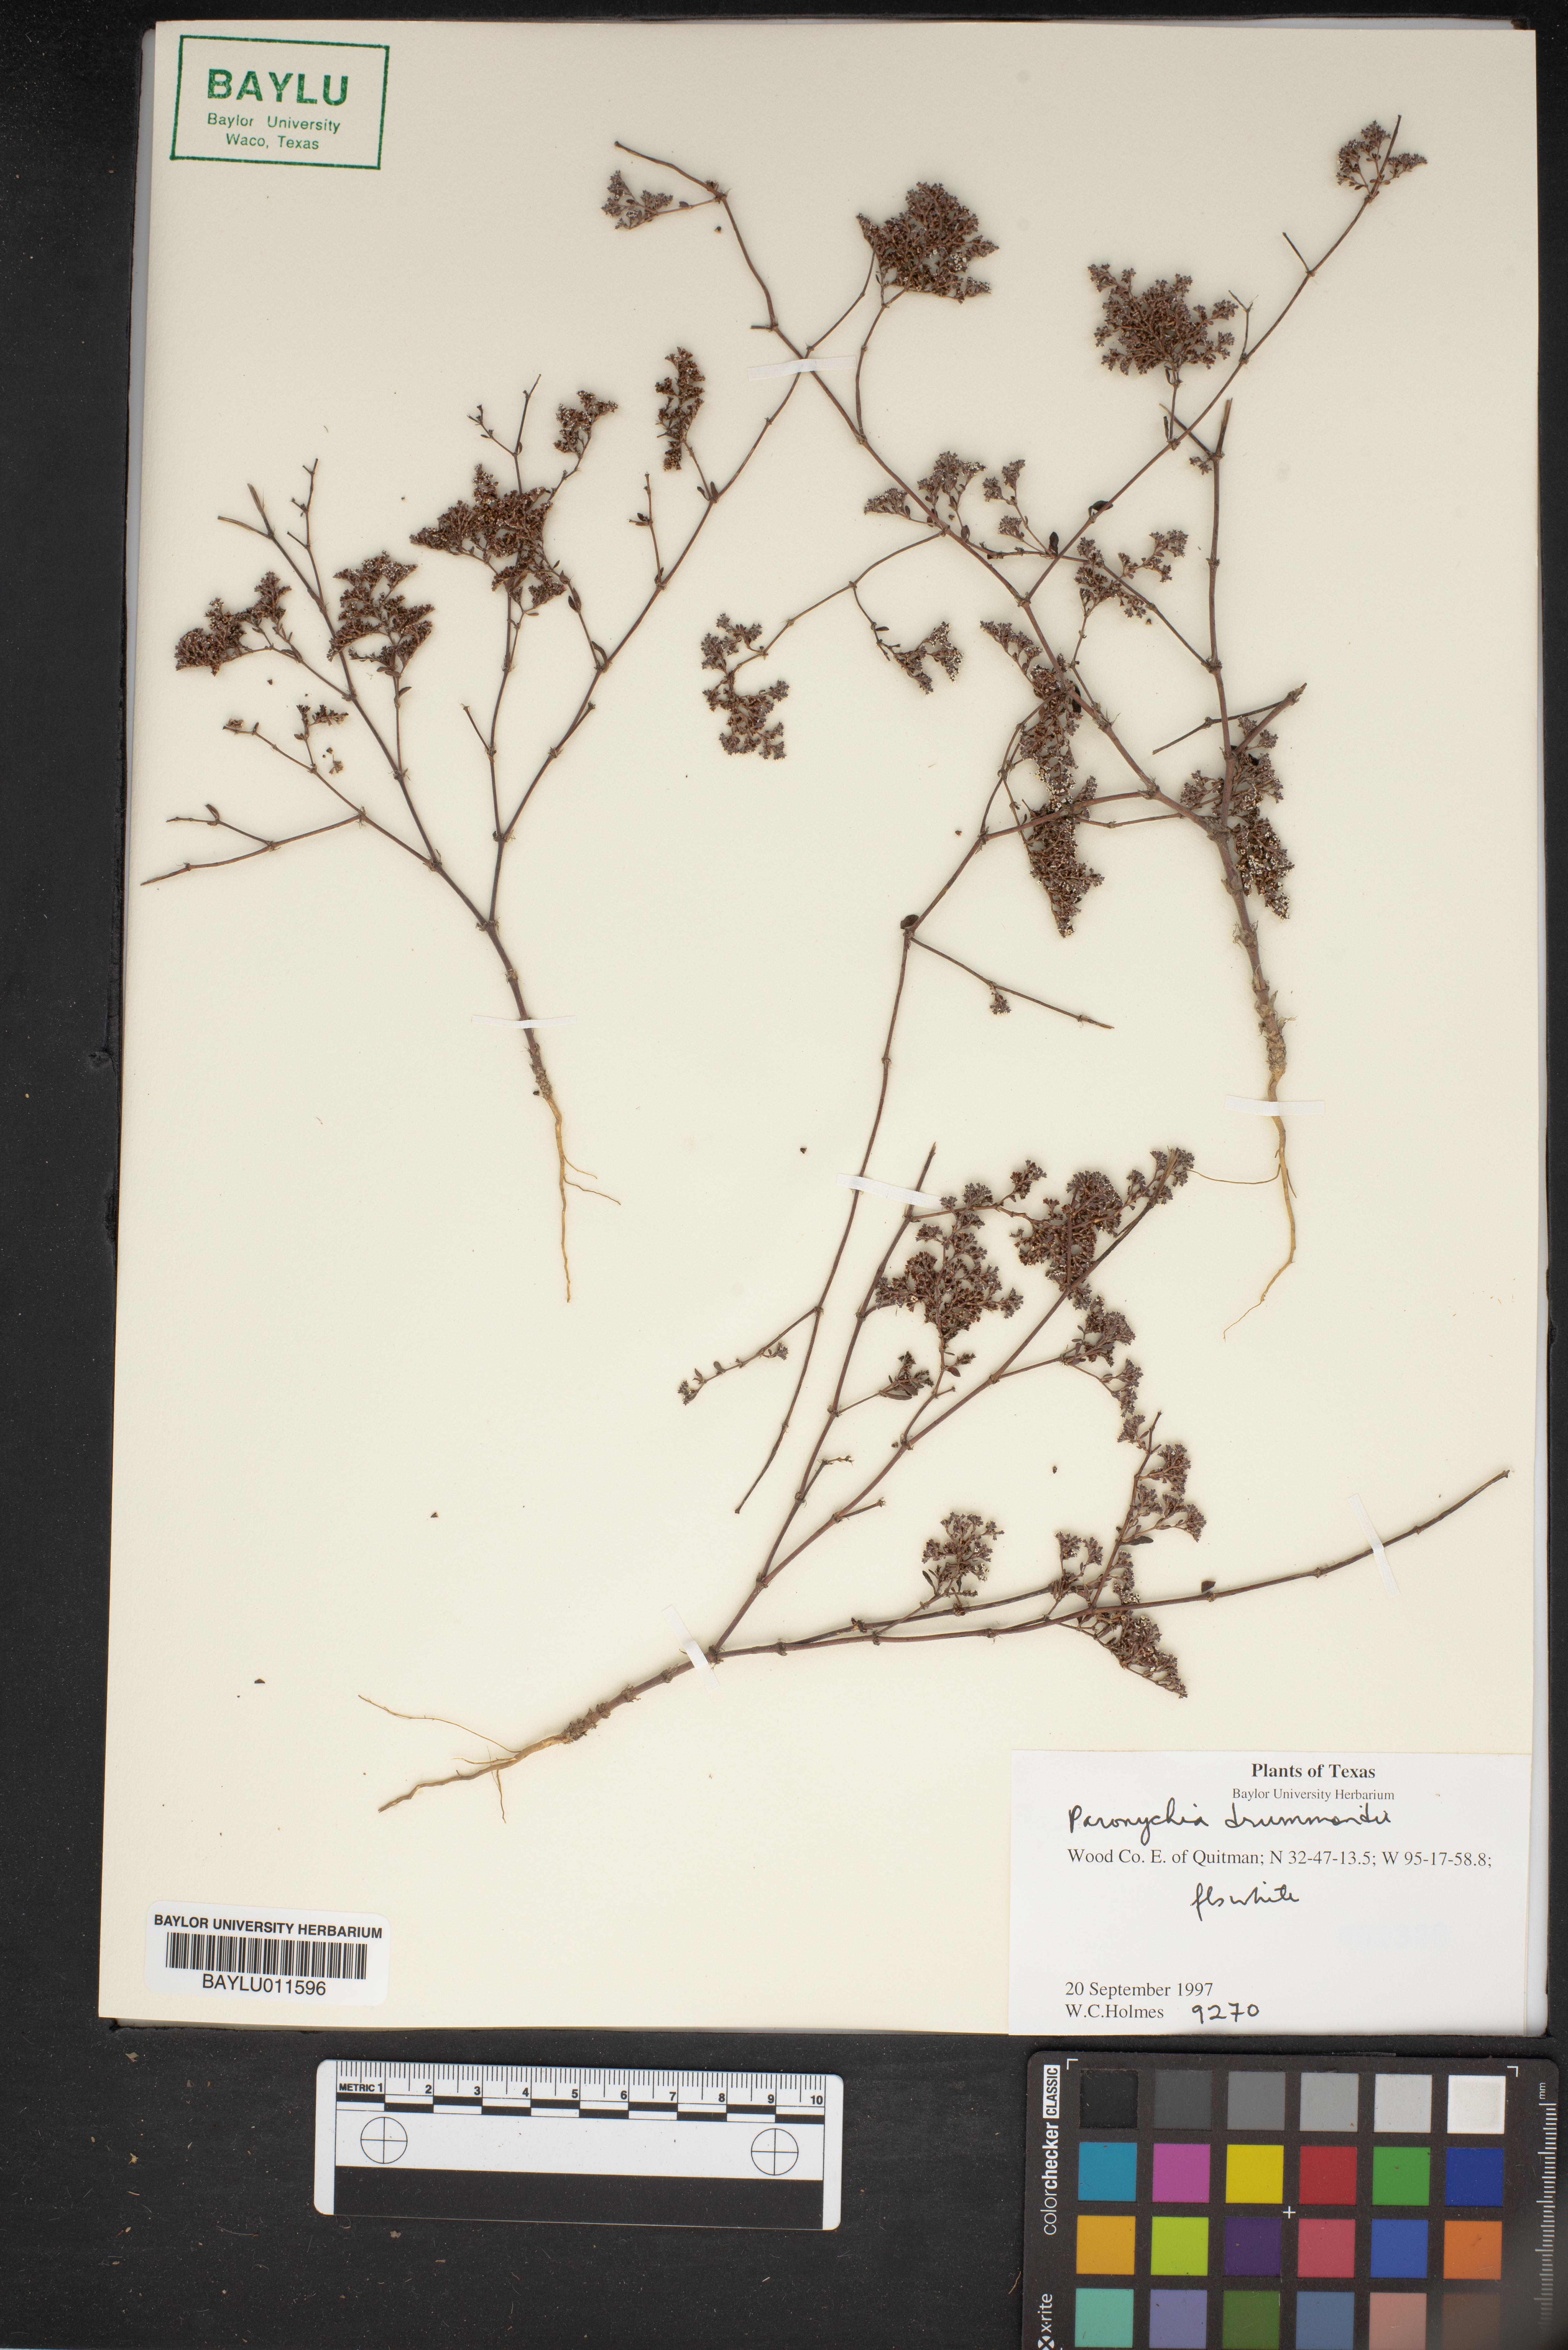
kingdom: Plantae
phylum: Tracheophyta
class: Magnoliopsida
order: Caryophyllales
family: Caryophyllaceae
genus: Paronychia
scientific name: Paronychia drummondii
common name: Drummond's nailwort
